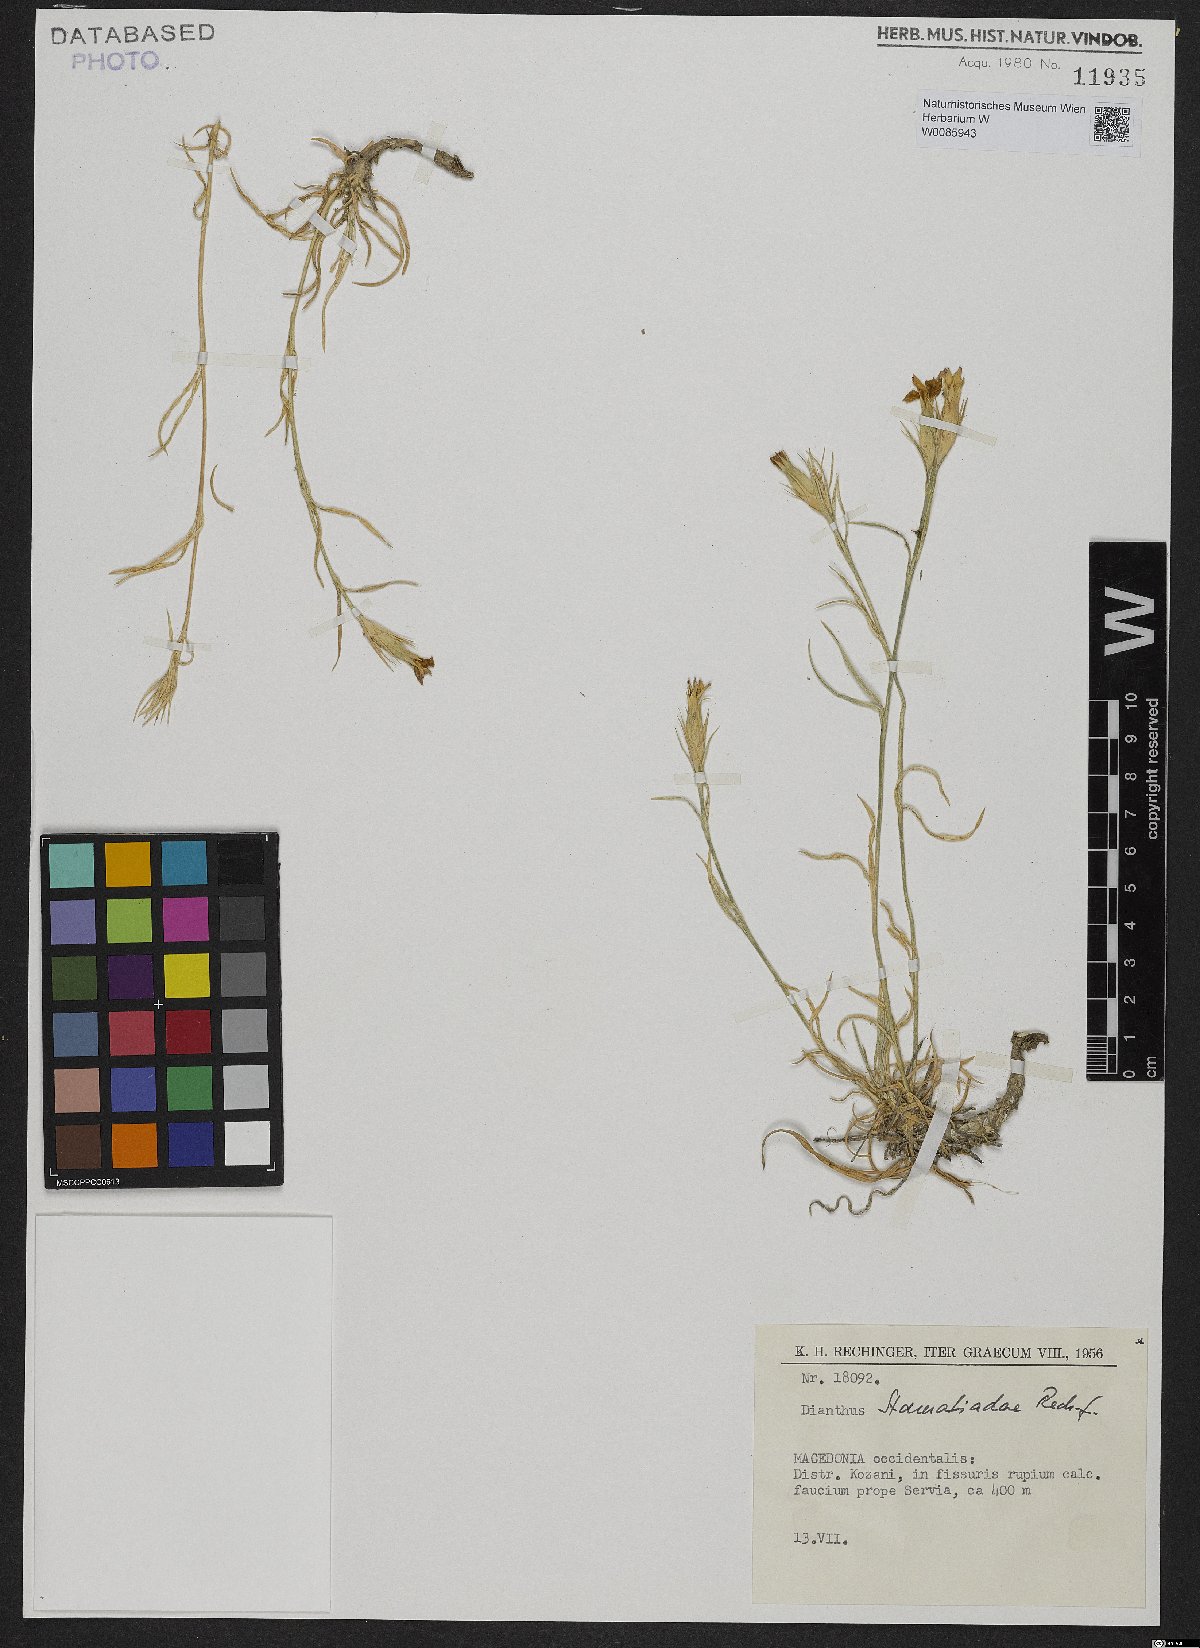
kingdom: Plantae
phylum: Tracheophyta
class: Magnoliopsida
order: Caryophyllales
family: Caryophyllaceae
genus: Dianthus
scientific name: Dianthus stamatiadae
